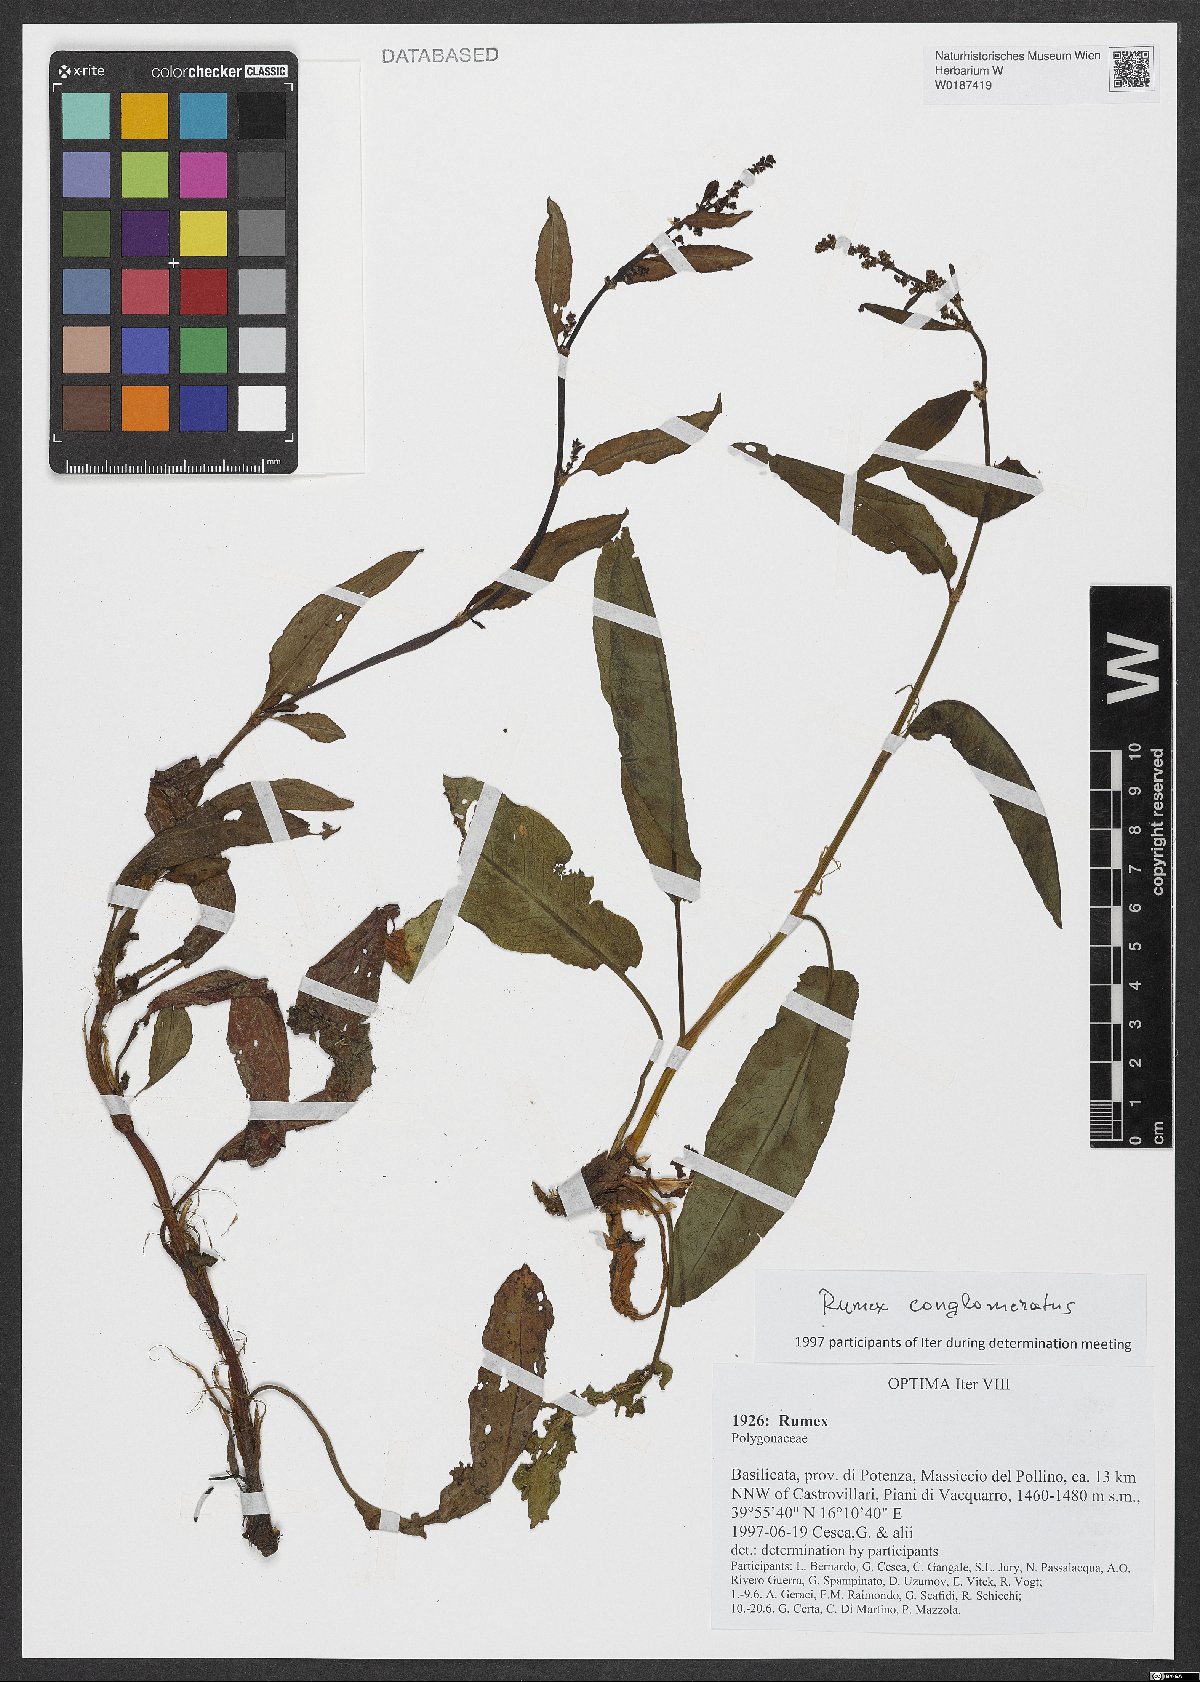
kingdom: Plantae
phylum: Tracheophyta
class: Magnoliopsida
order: Caryophyllales
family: Polygonaceae
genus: Rumex
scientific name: Rumex conglomeratus
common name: Clustered dock
